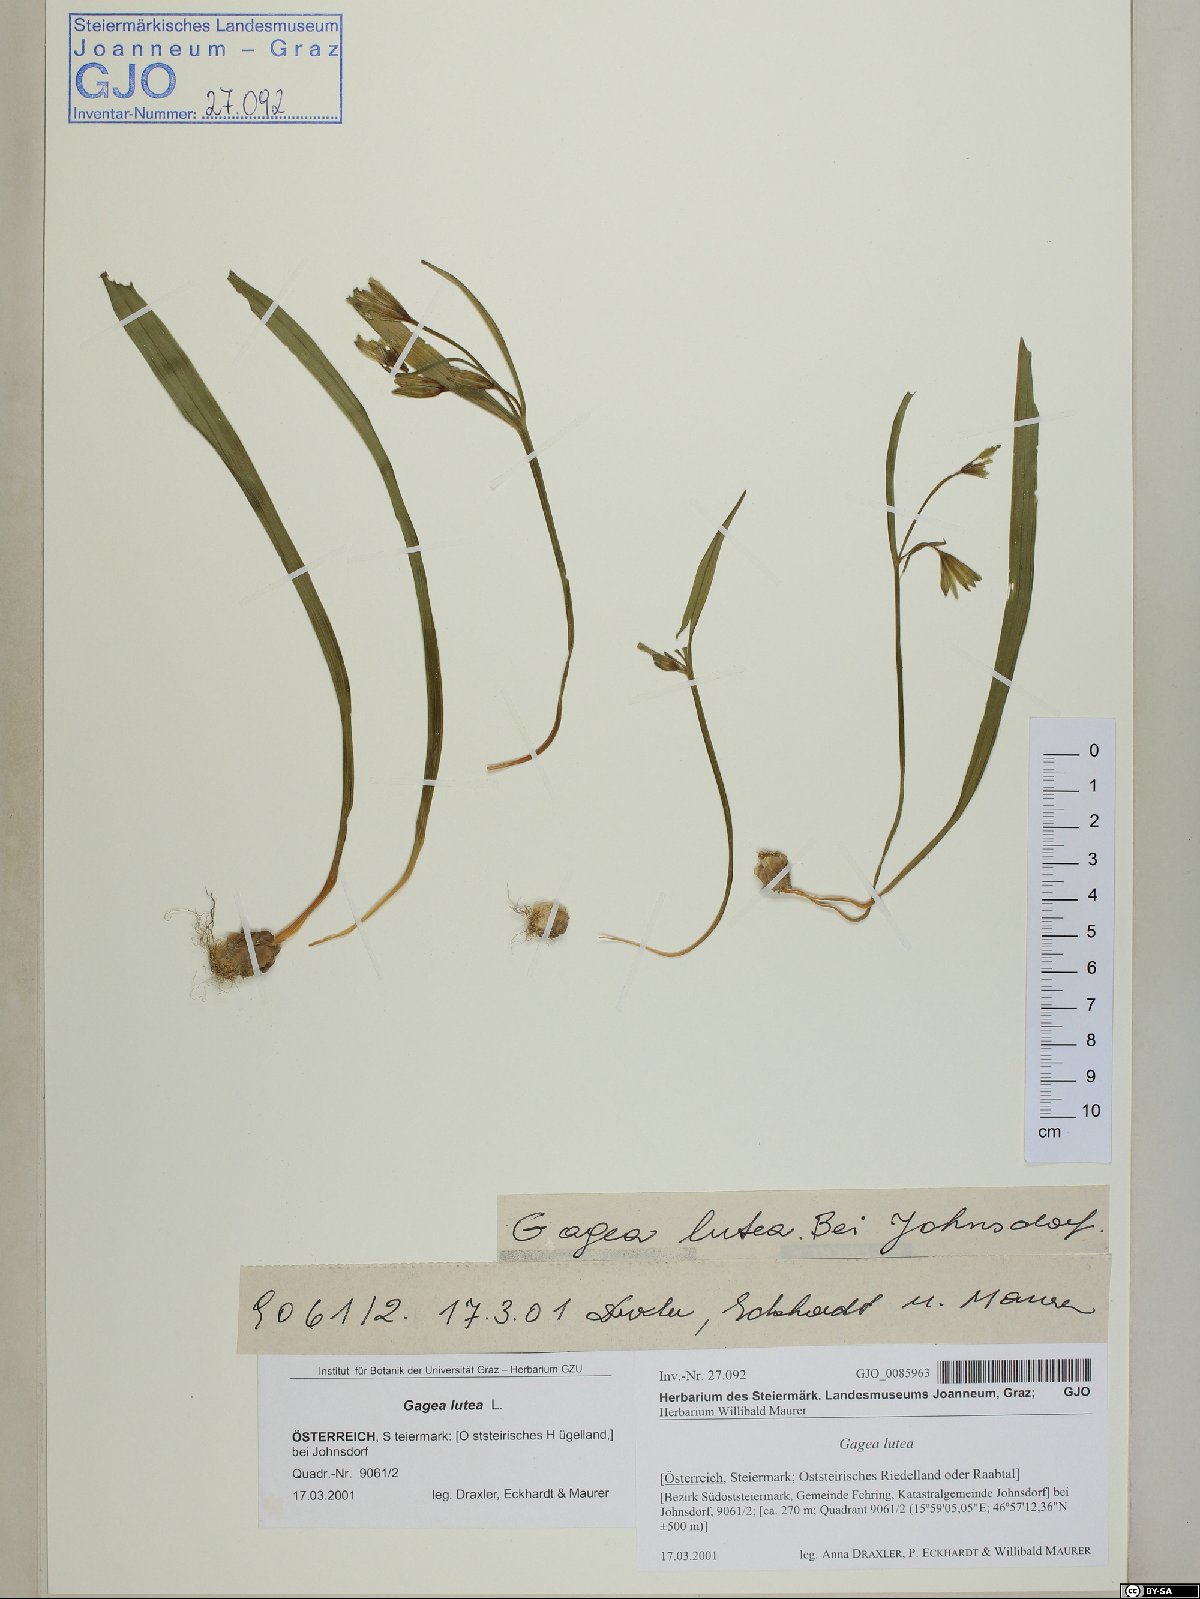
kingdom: Plantae
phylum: Tracheophyta
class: Liliopsida
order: Liliales
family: Liliaceae
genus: Gagea
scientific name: Gagea lutea
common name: Yellow star-of-bethlehem
